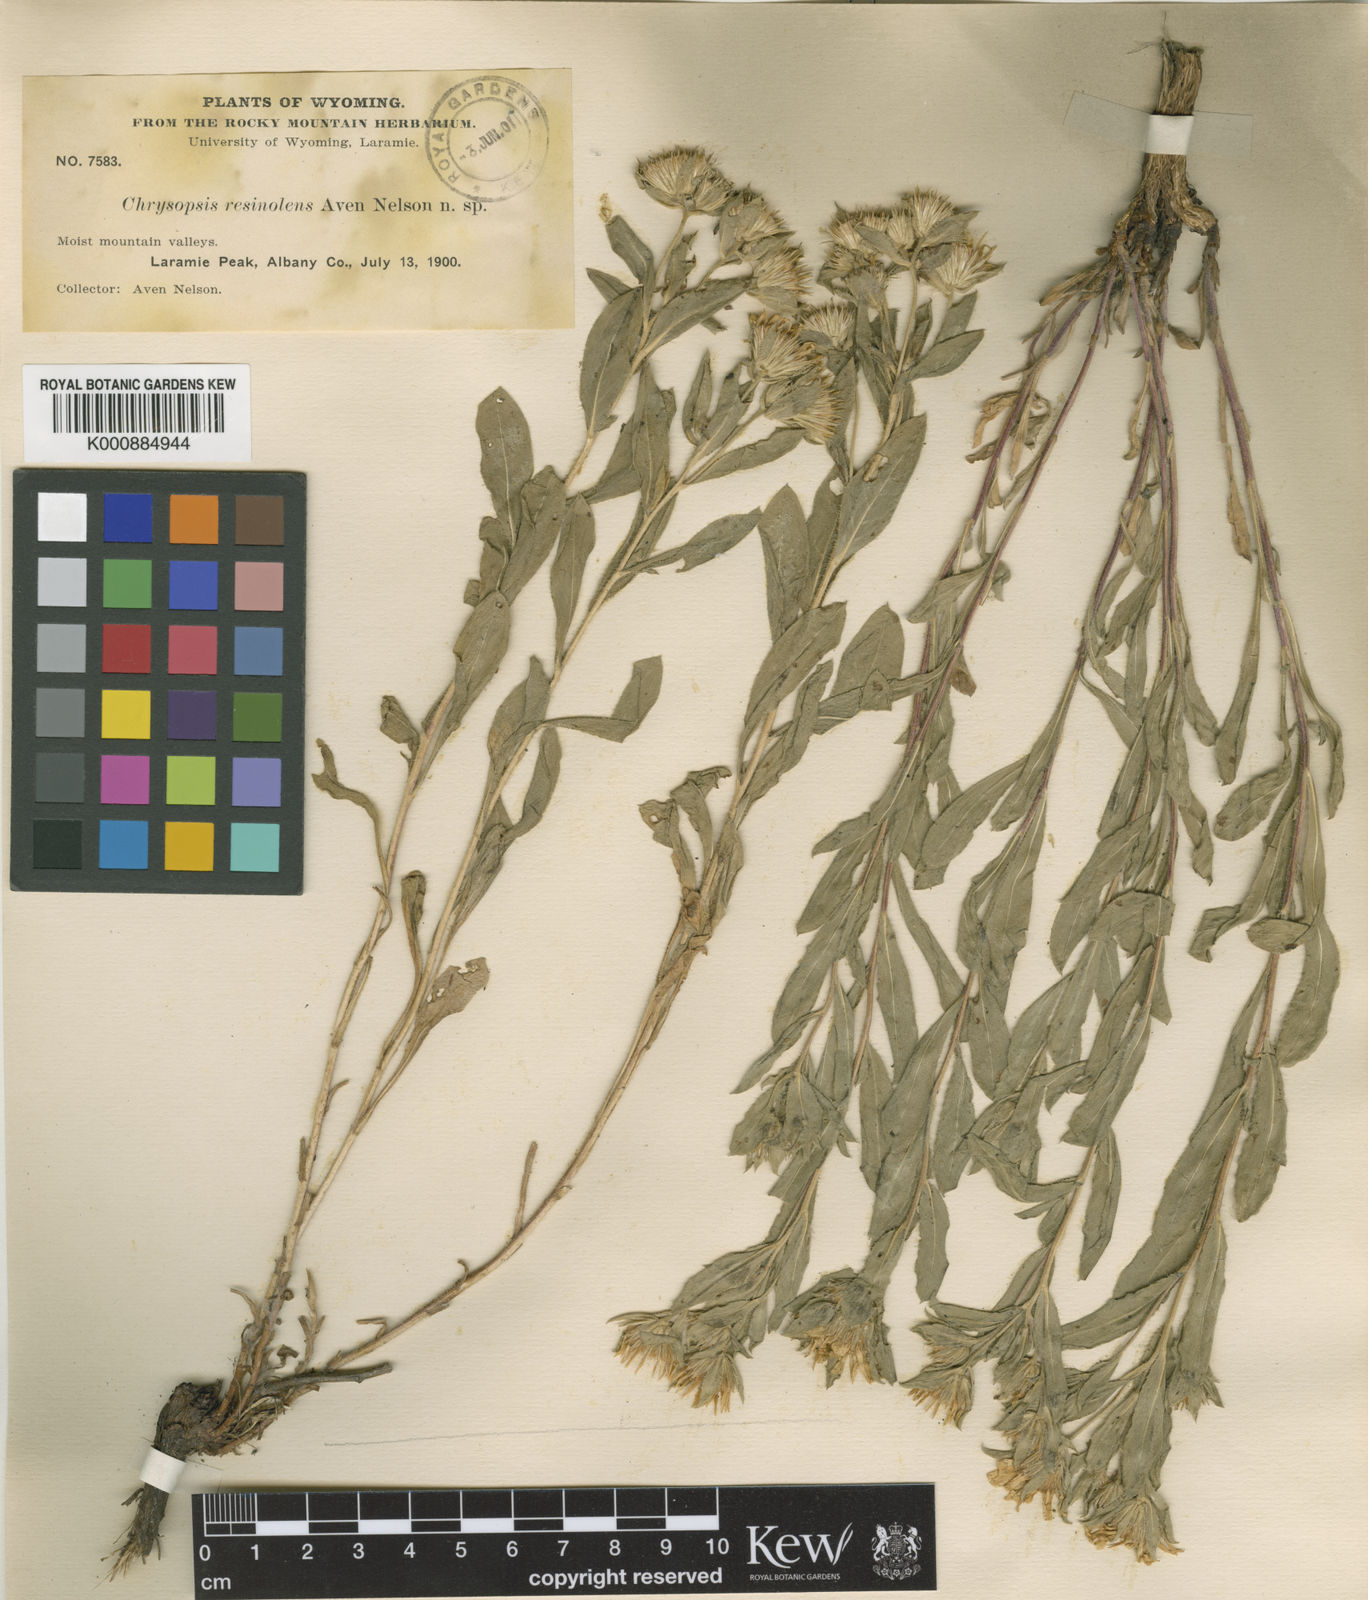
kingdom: Plantae
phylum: Tracheophyta
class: Magnoliopsida
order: Asterales
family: Asteraceae
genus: Heterotheca
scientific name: Heterotheca
